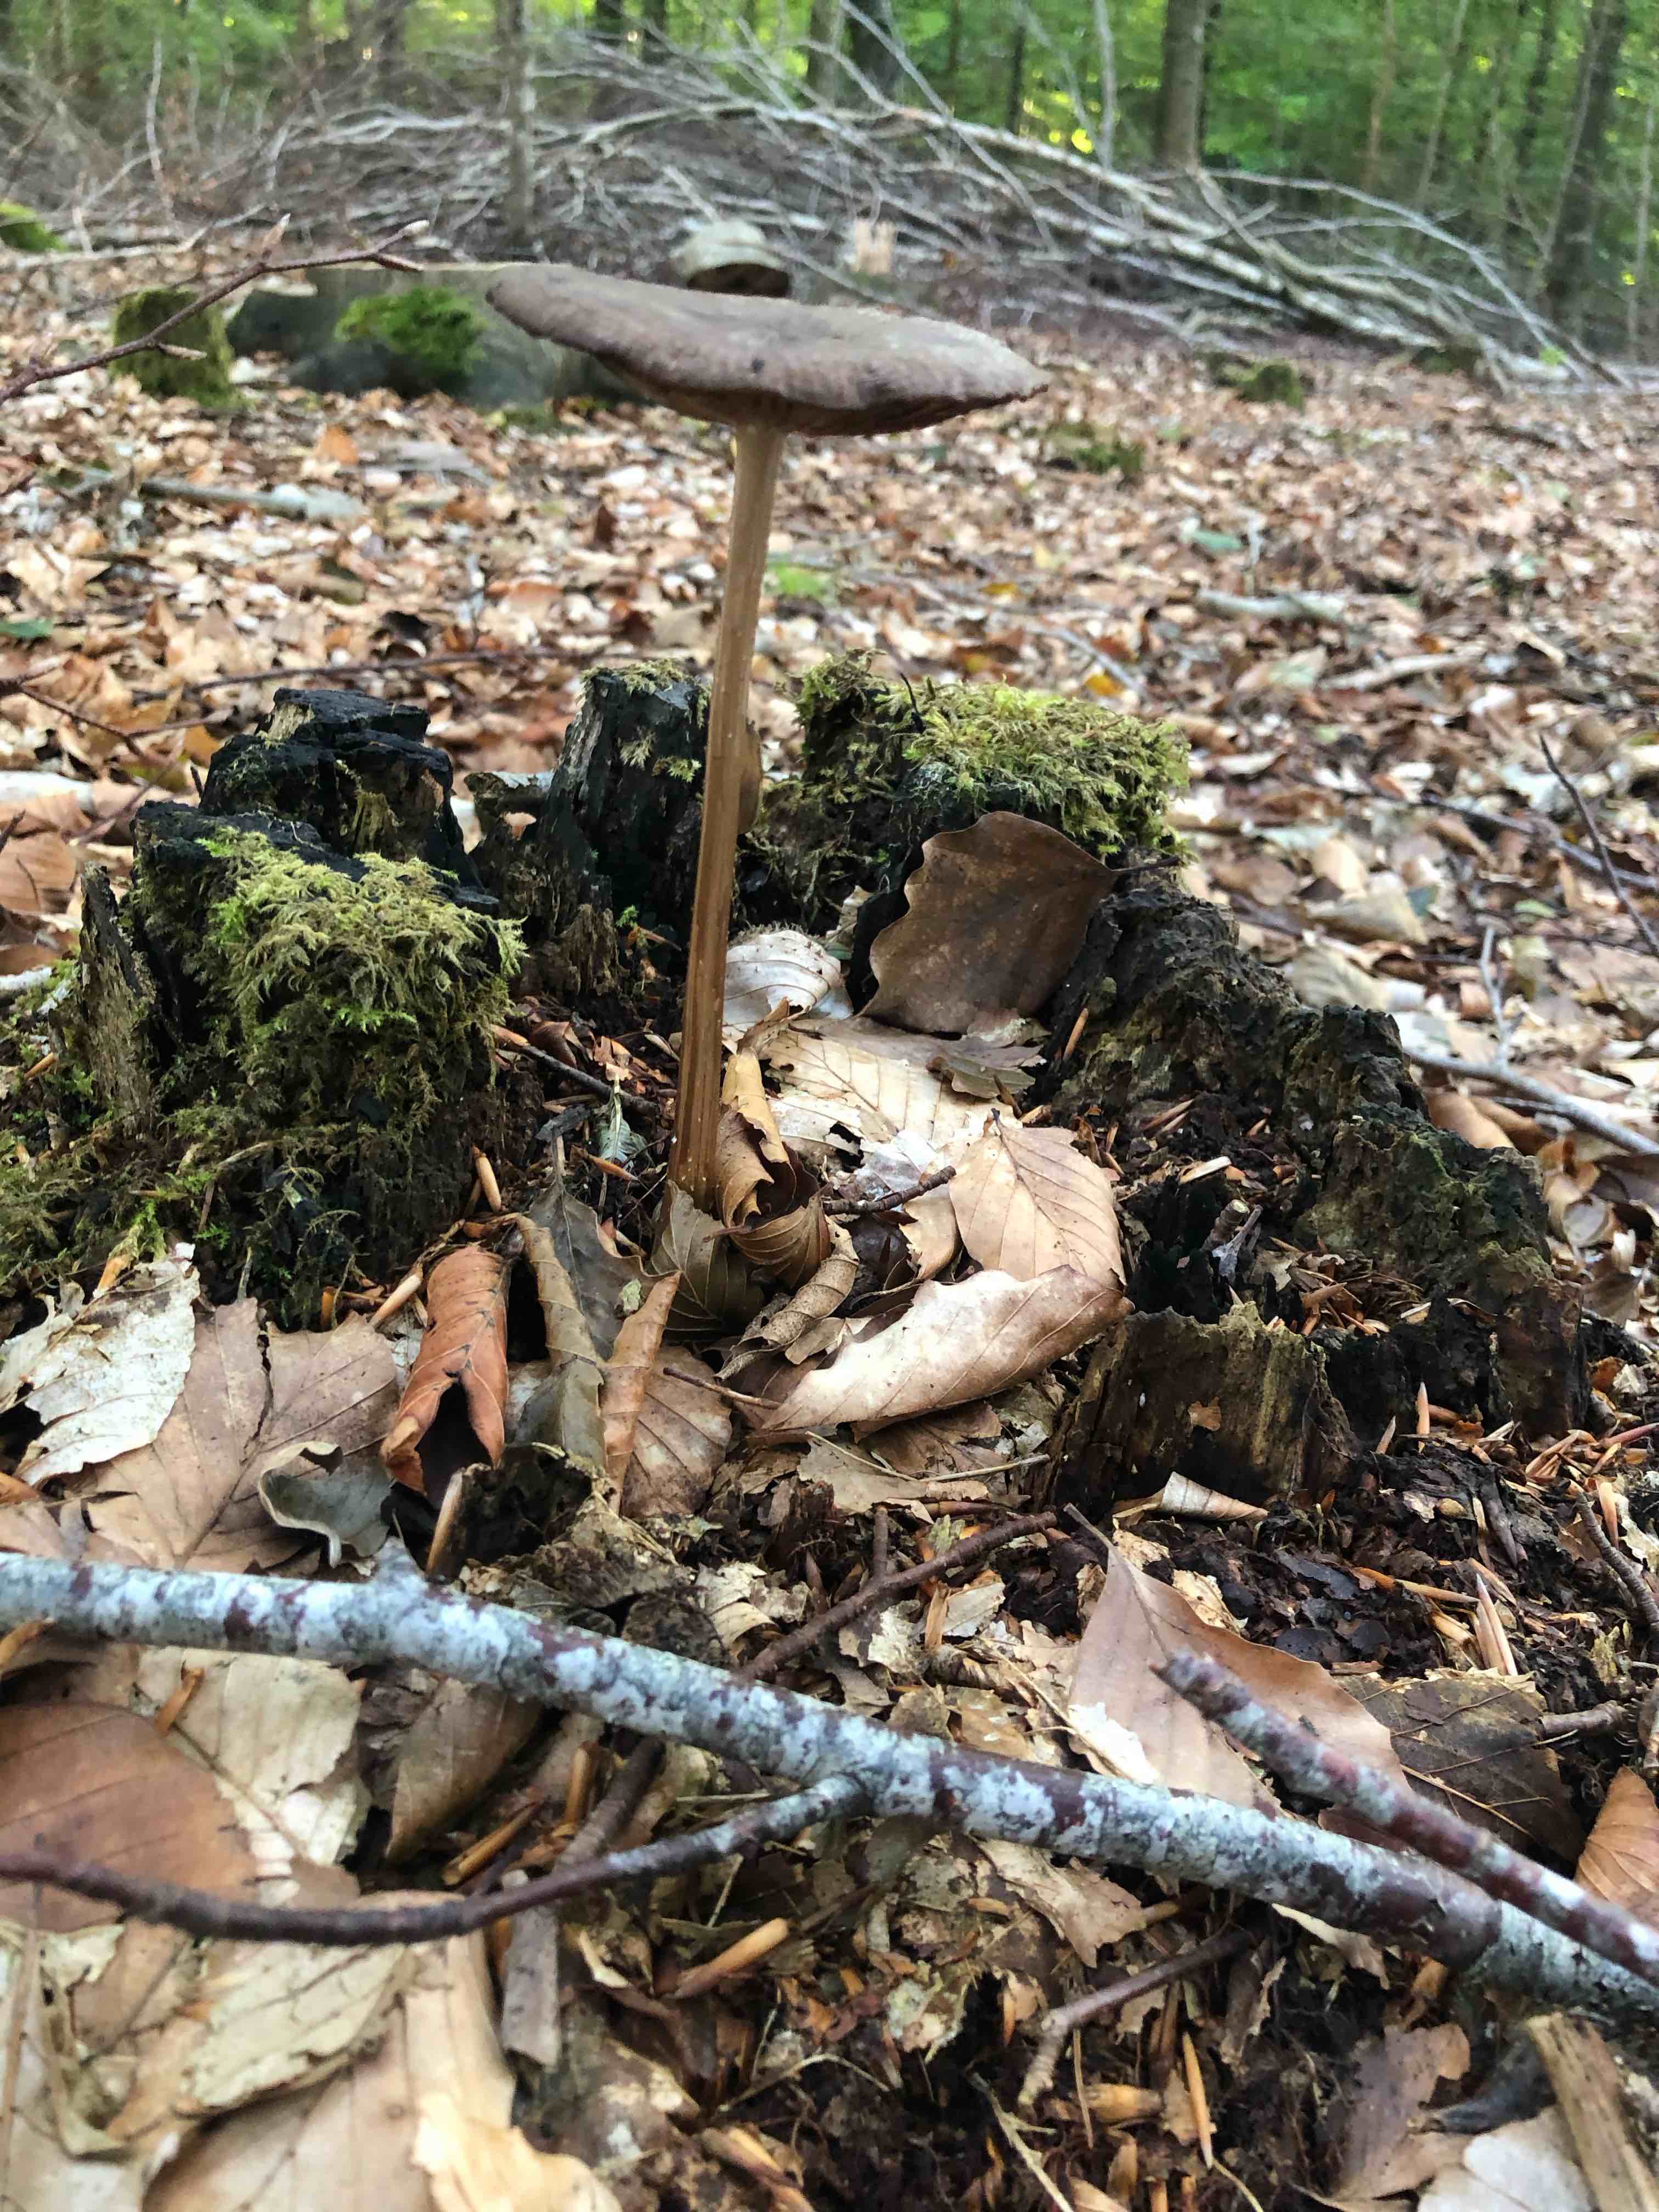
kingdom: Fungi
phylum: Basidiomycota
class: Agaricomycetes
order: Agaricales
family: Physalacriaceae
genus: Hymenopellis
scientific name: Hymenopellis radicata
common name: almindelig pælerodshat
